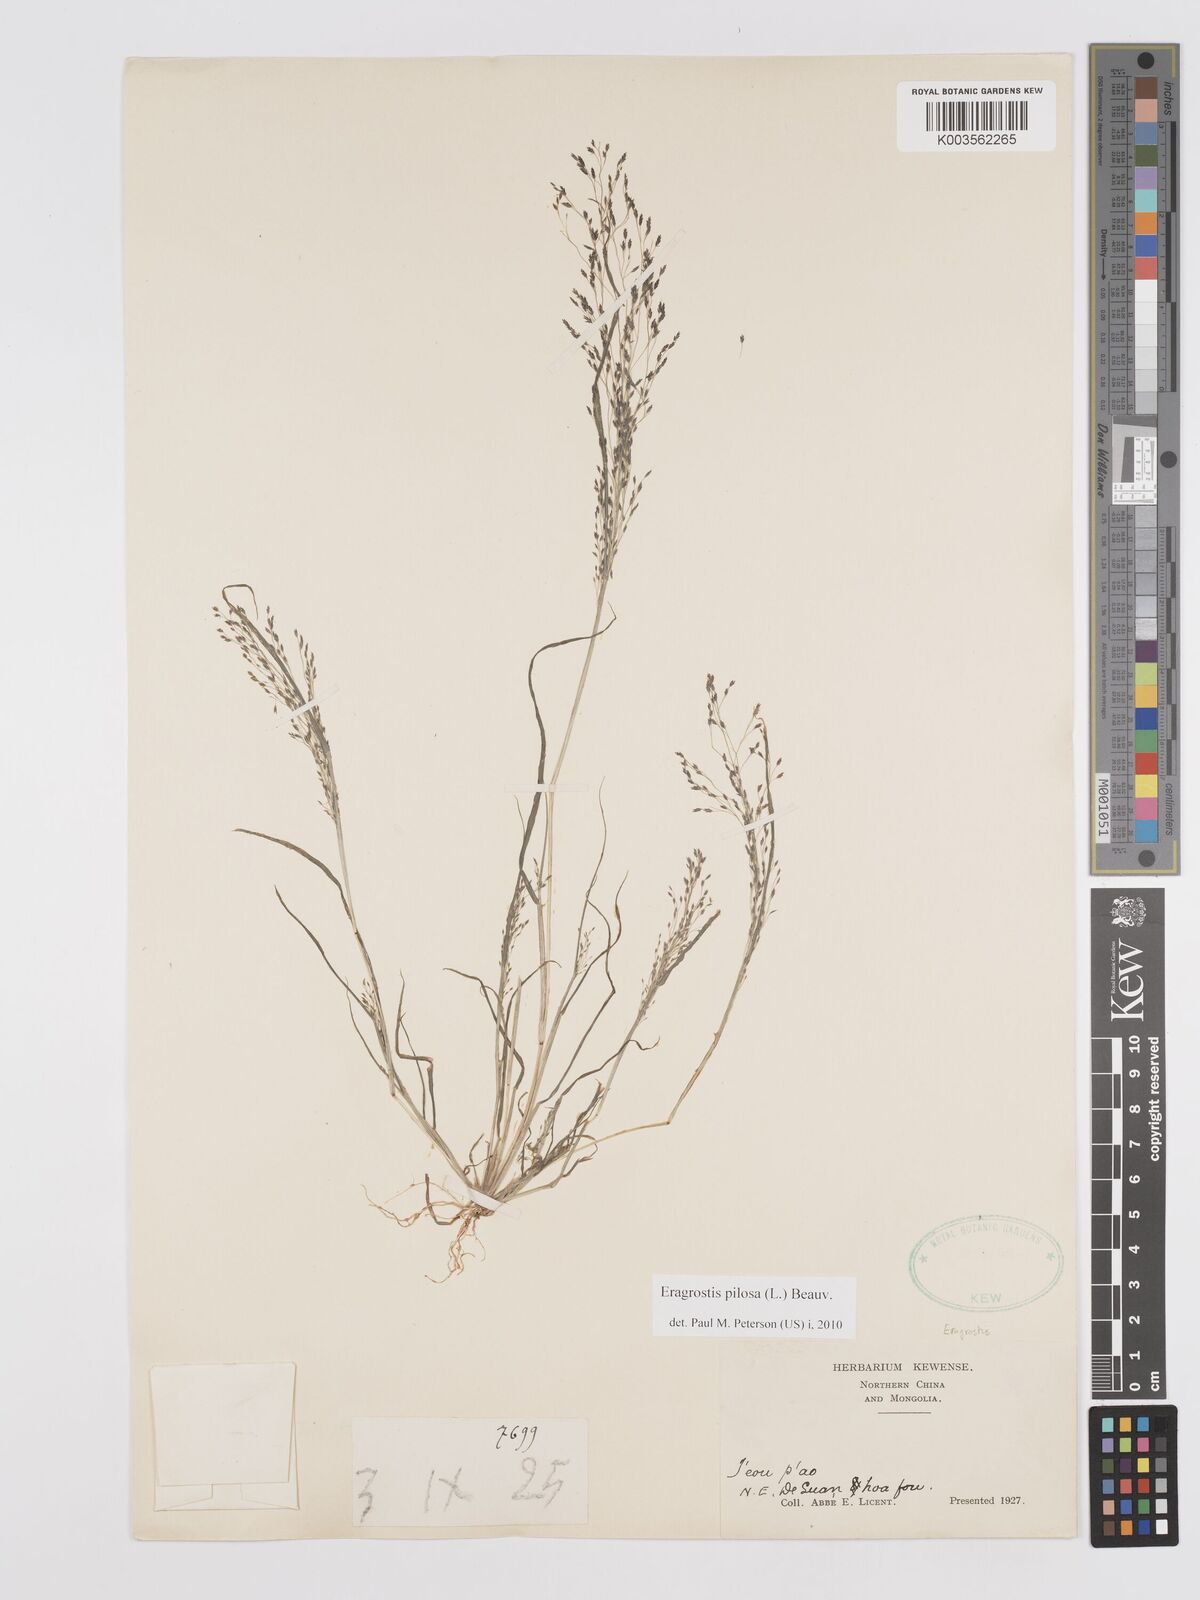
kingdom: Plantae
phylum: Tracheophyta
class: Liliopsida
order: Poales
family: Poaceae
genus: Eragrostis
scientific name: Eragrostis pilosa
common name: Indian lovegrass
